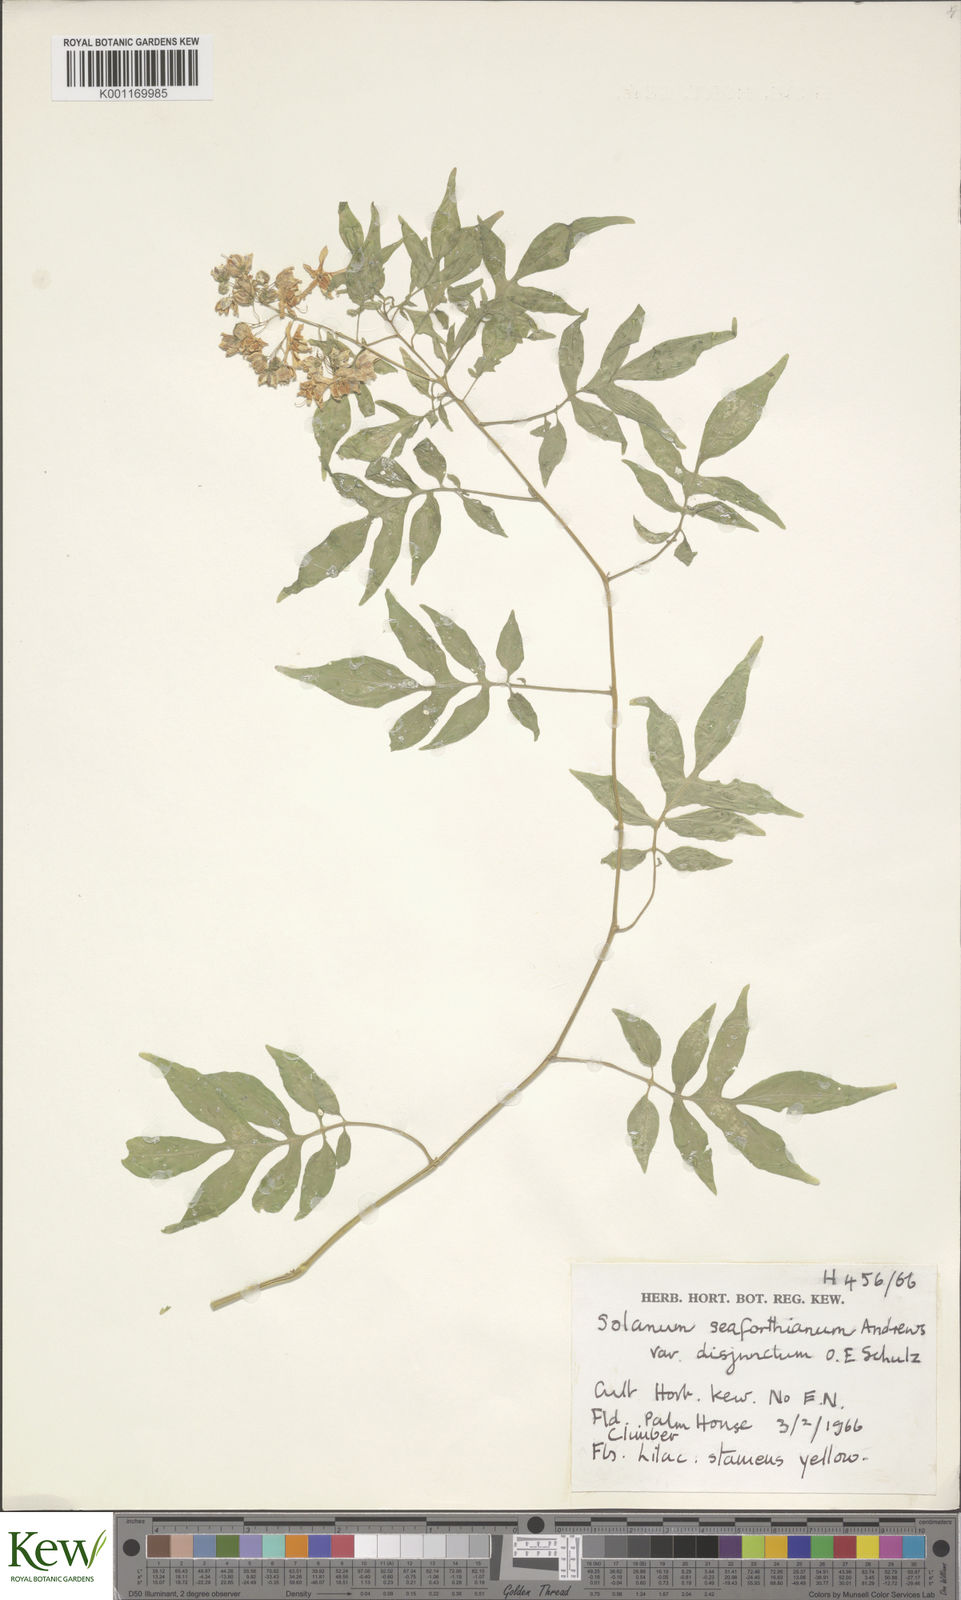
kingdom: Plantae
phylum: Tracheophyta
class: Magnoliopsida
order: Solanales
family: Solanaceae
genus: Solanum
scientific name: Solanum seaforthianum
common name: Brazilian nightshade
